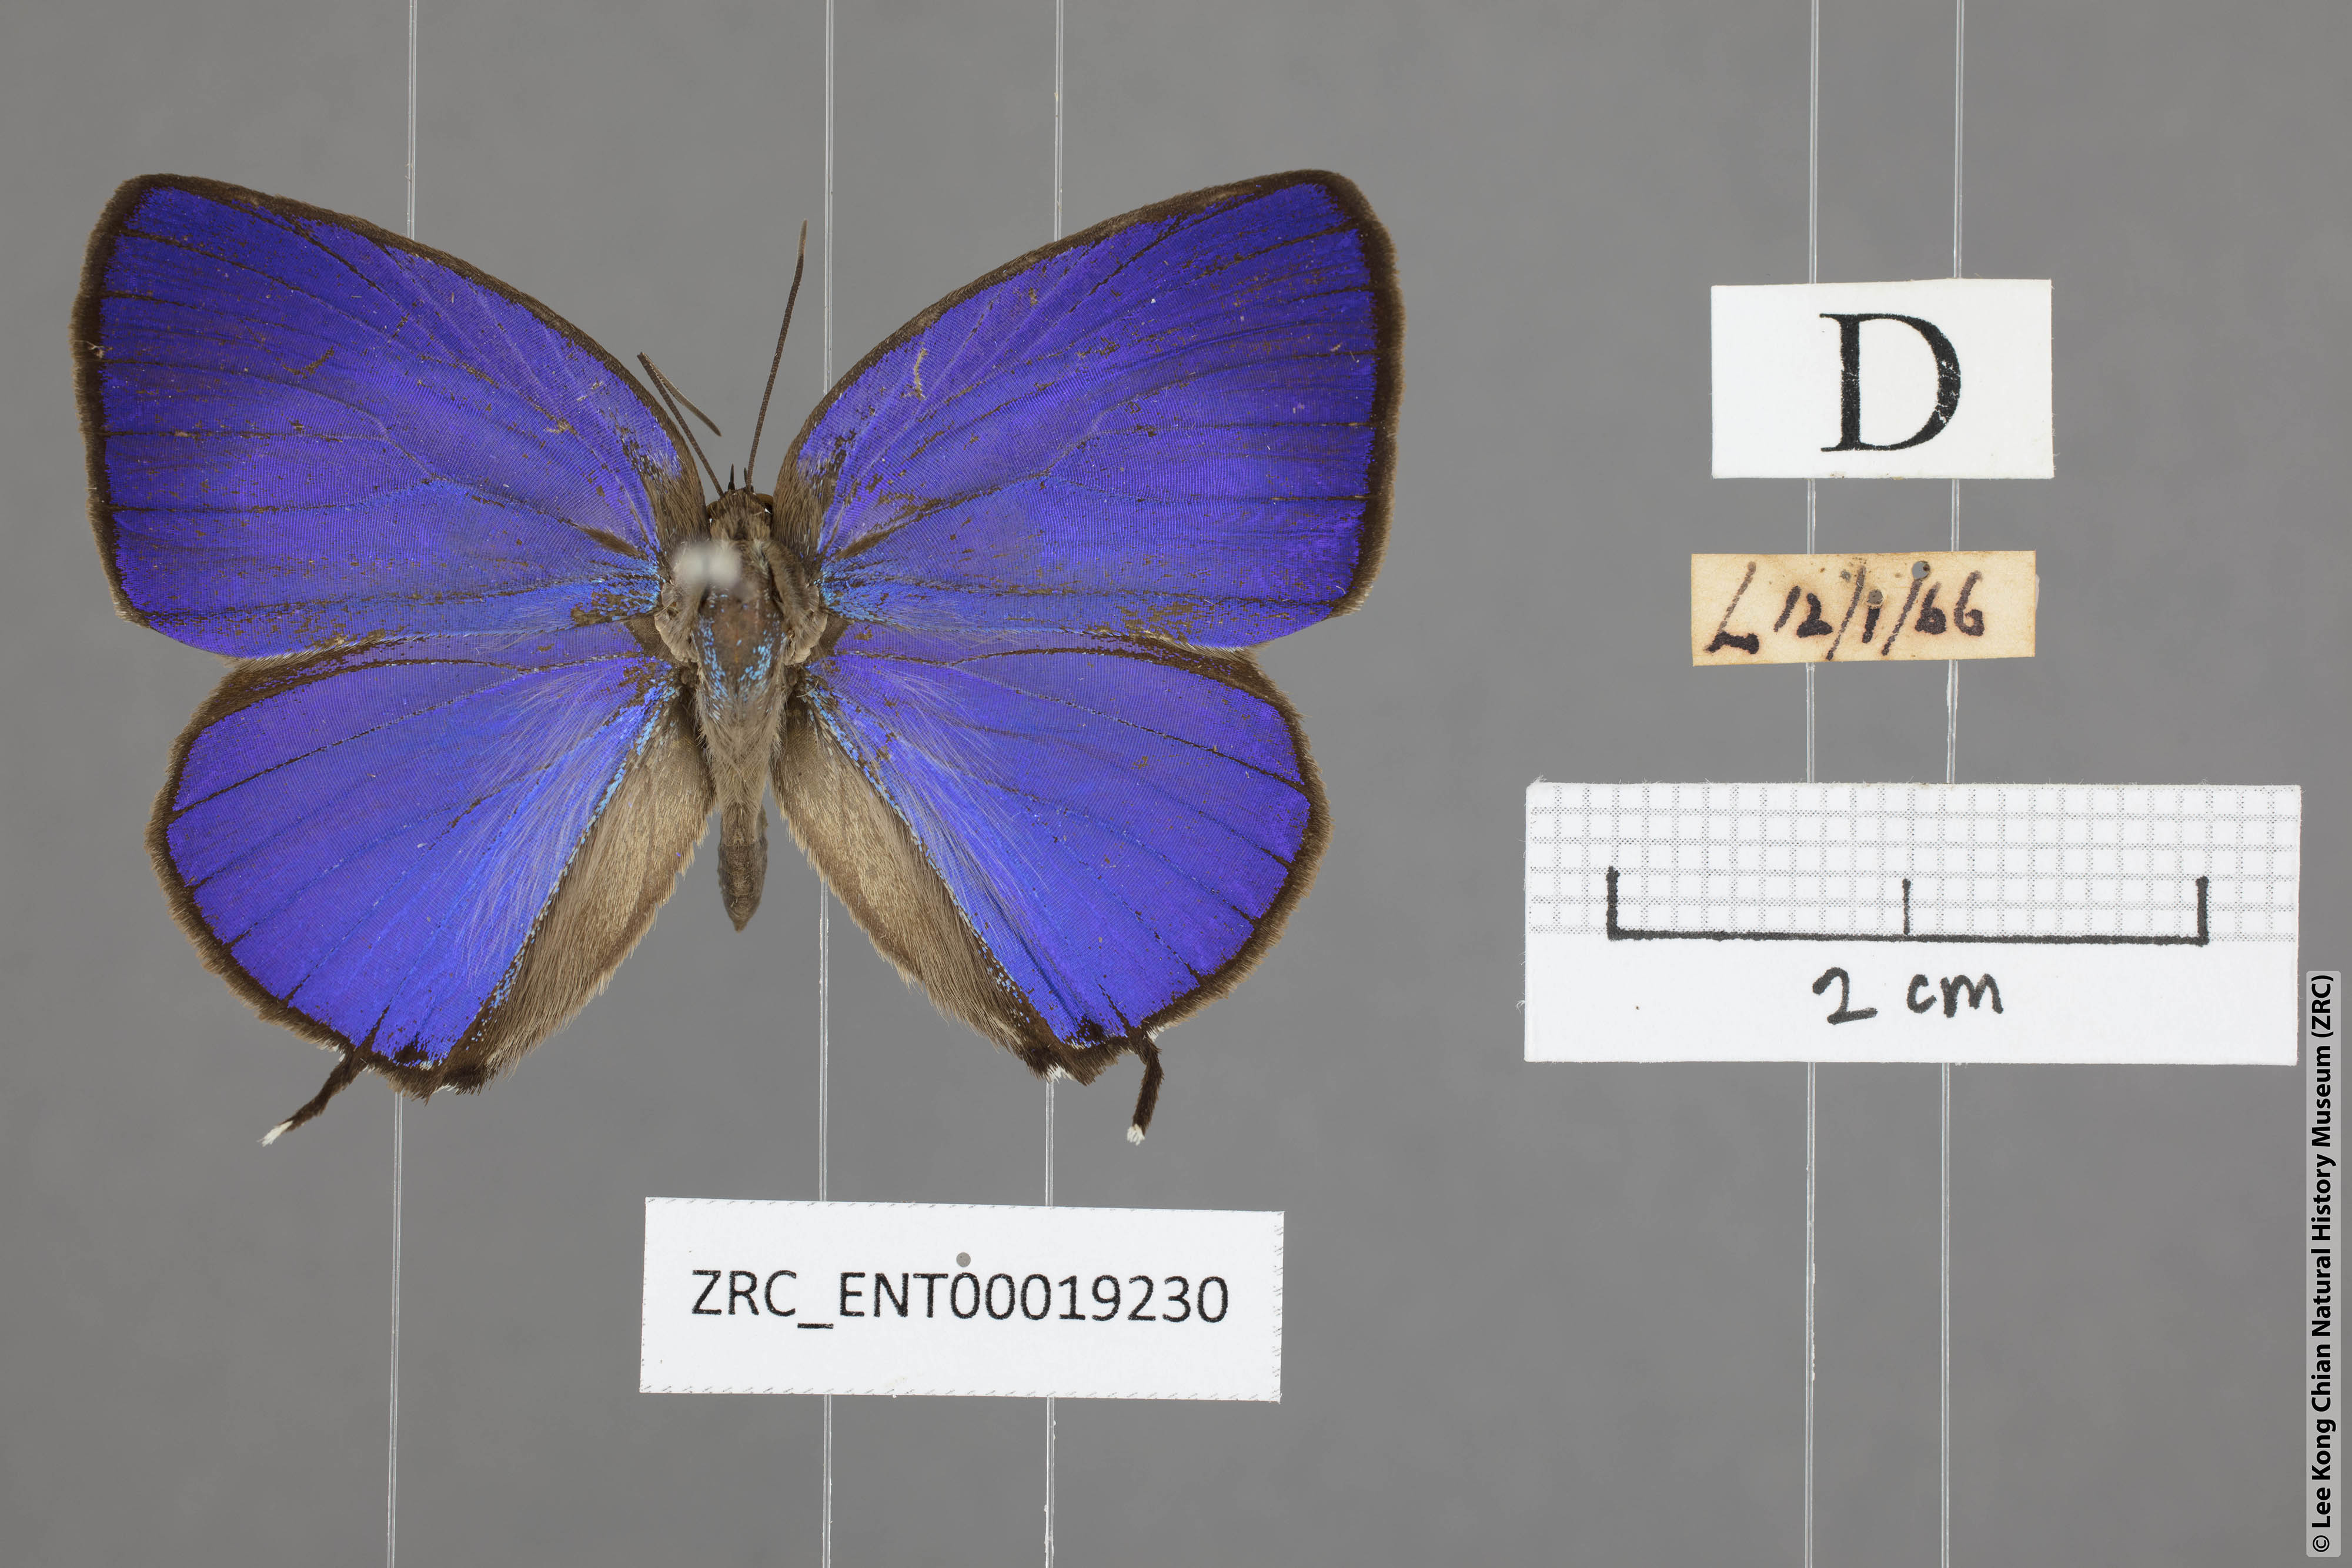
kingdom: Animalia
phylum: Arthropoda
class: Insecta
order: Lepidoptera
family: Lycaenidae
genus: Arhopala
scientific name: Arhopala atosia
